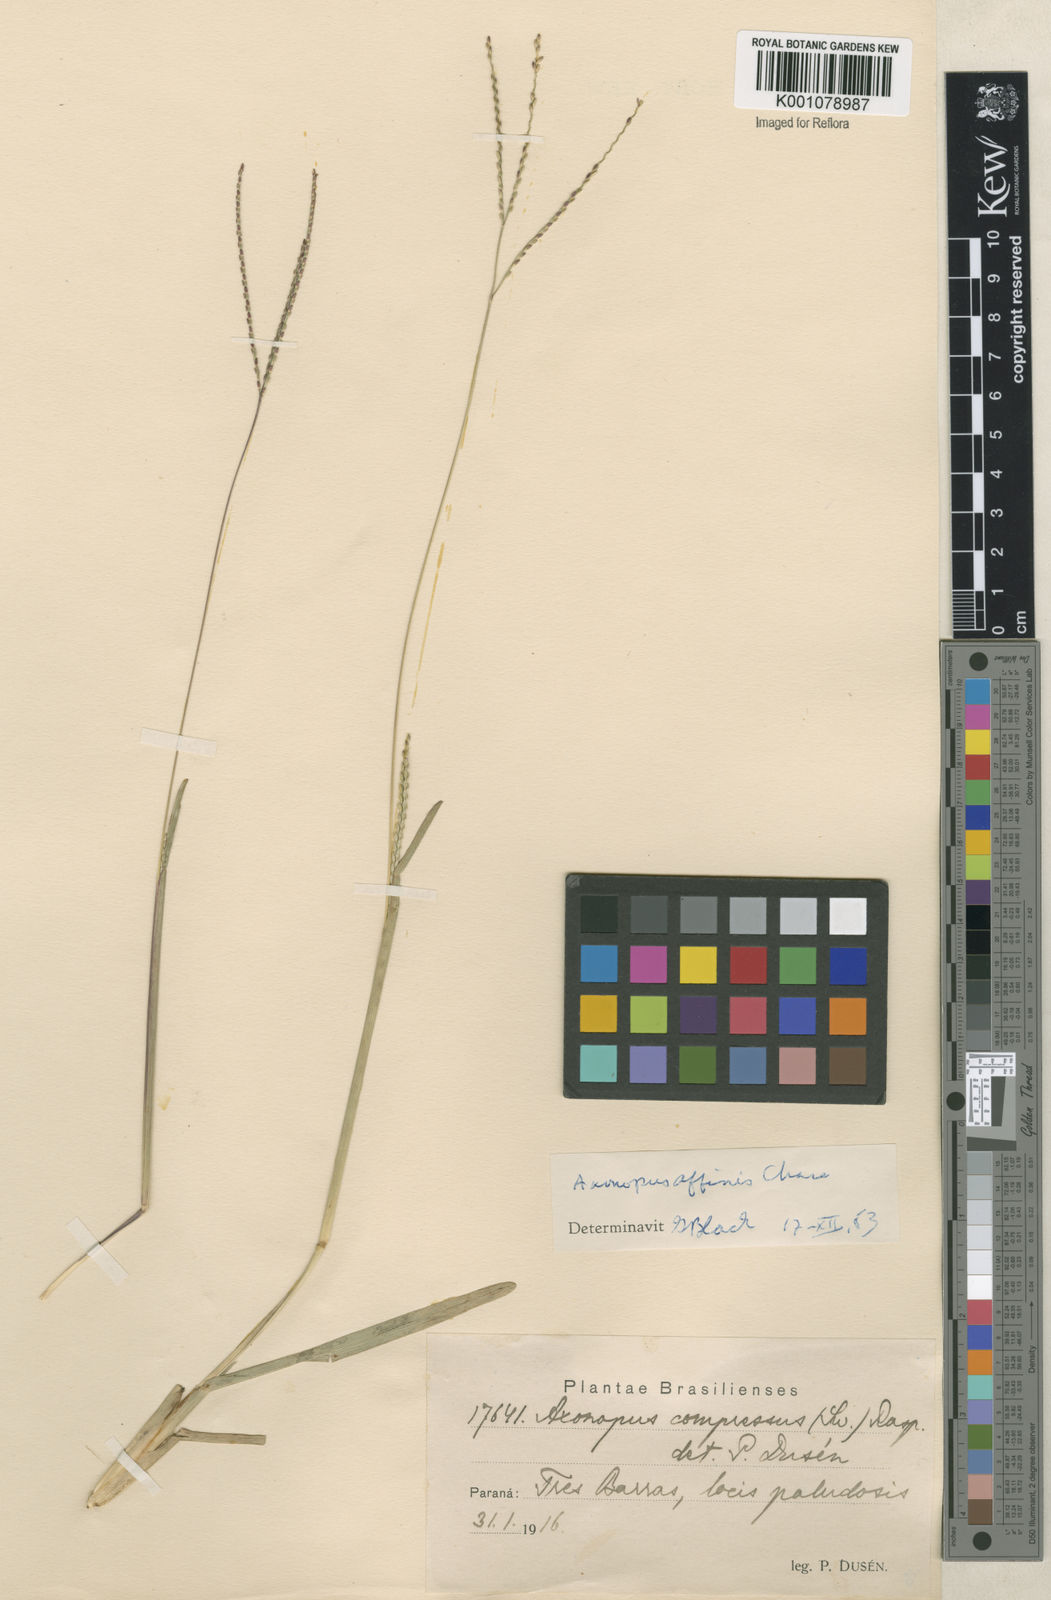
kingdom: Plantae
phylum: Tracheophyta
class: Liliopsida
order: Poales
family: Poaceae
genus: Axonopus
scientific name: Axonopus fissifolius
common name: Common carpetgrass
